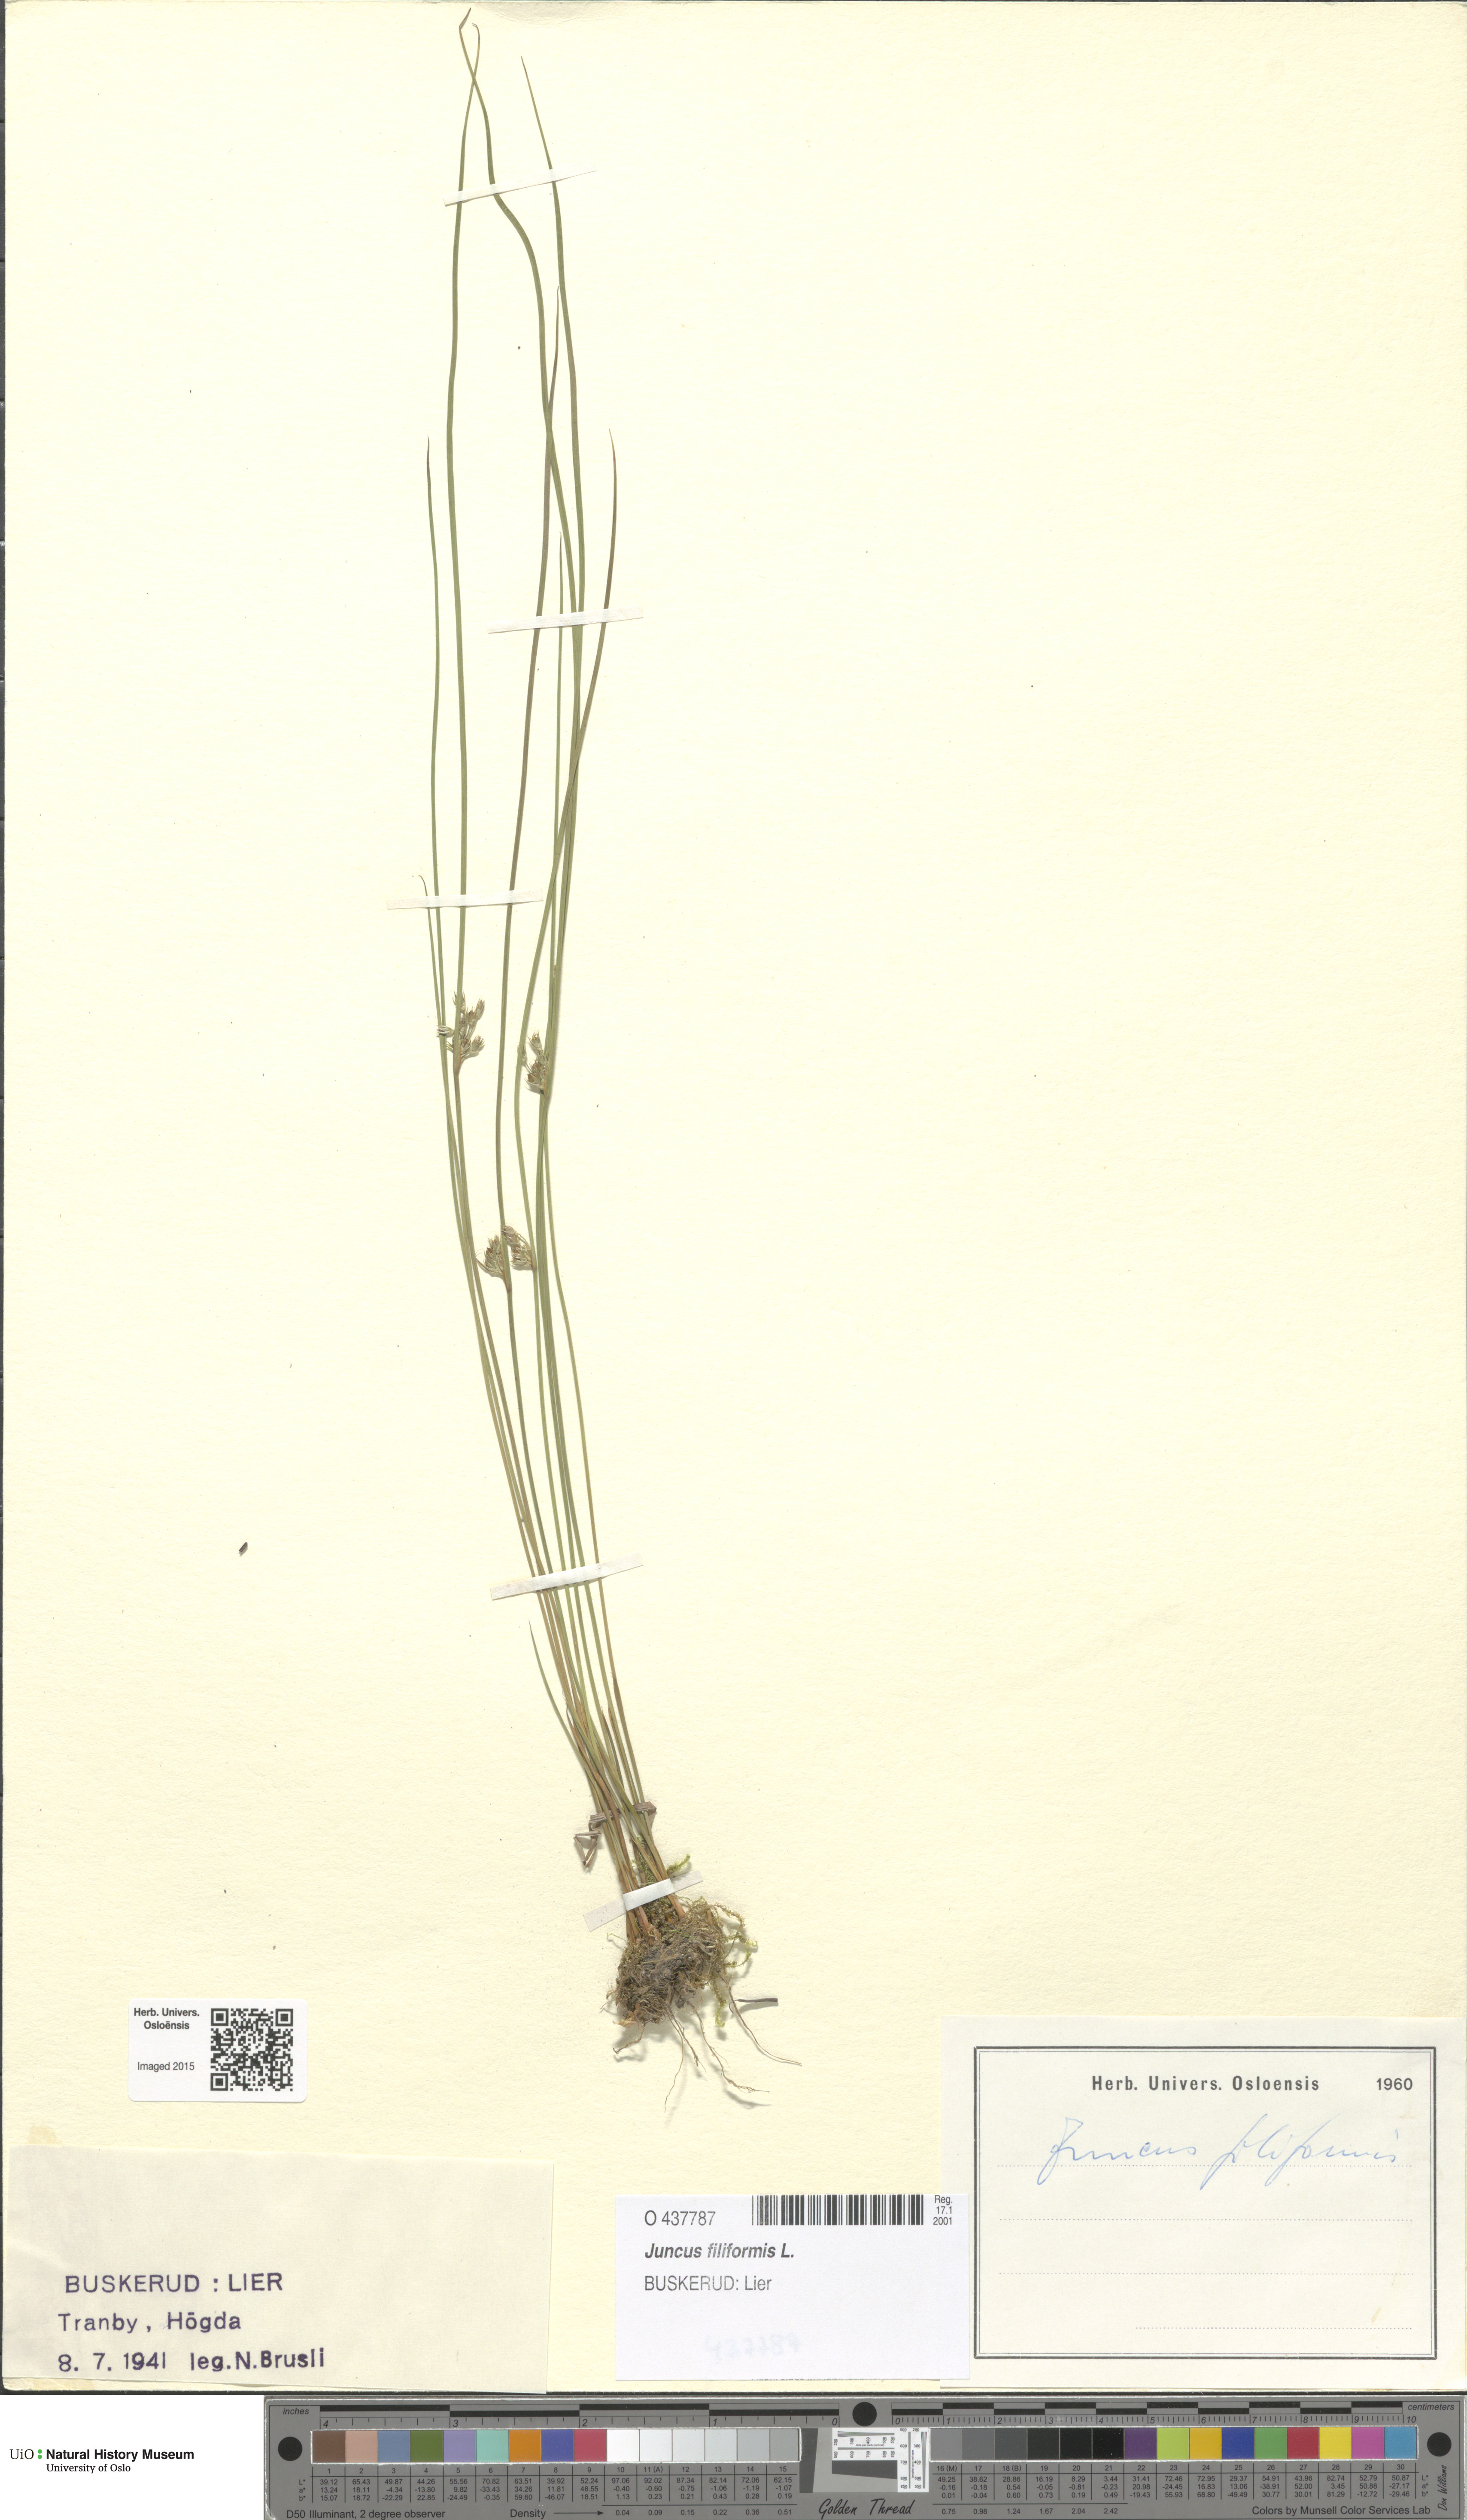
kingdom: Plantae
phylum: Tracheophyta
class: Liliopsida
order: Poales
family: Juncaceae
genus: Juncus
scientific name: Juncus filiformis
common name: Thread rush
